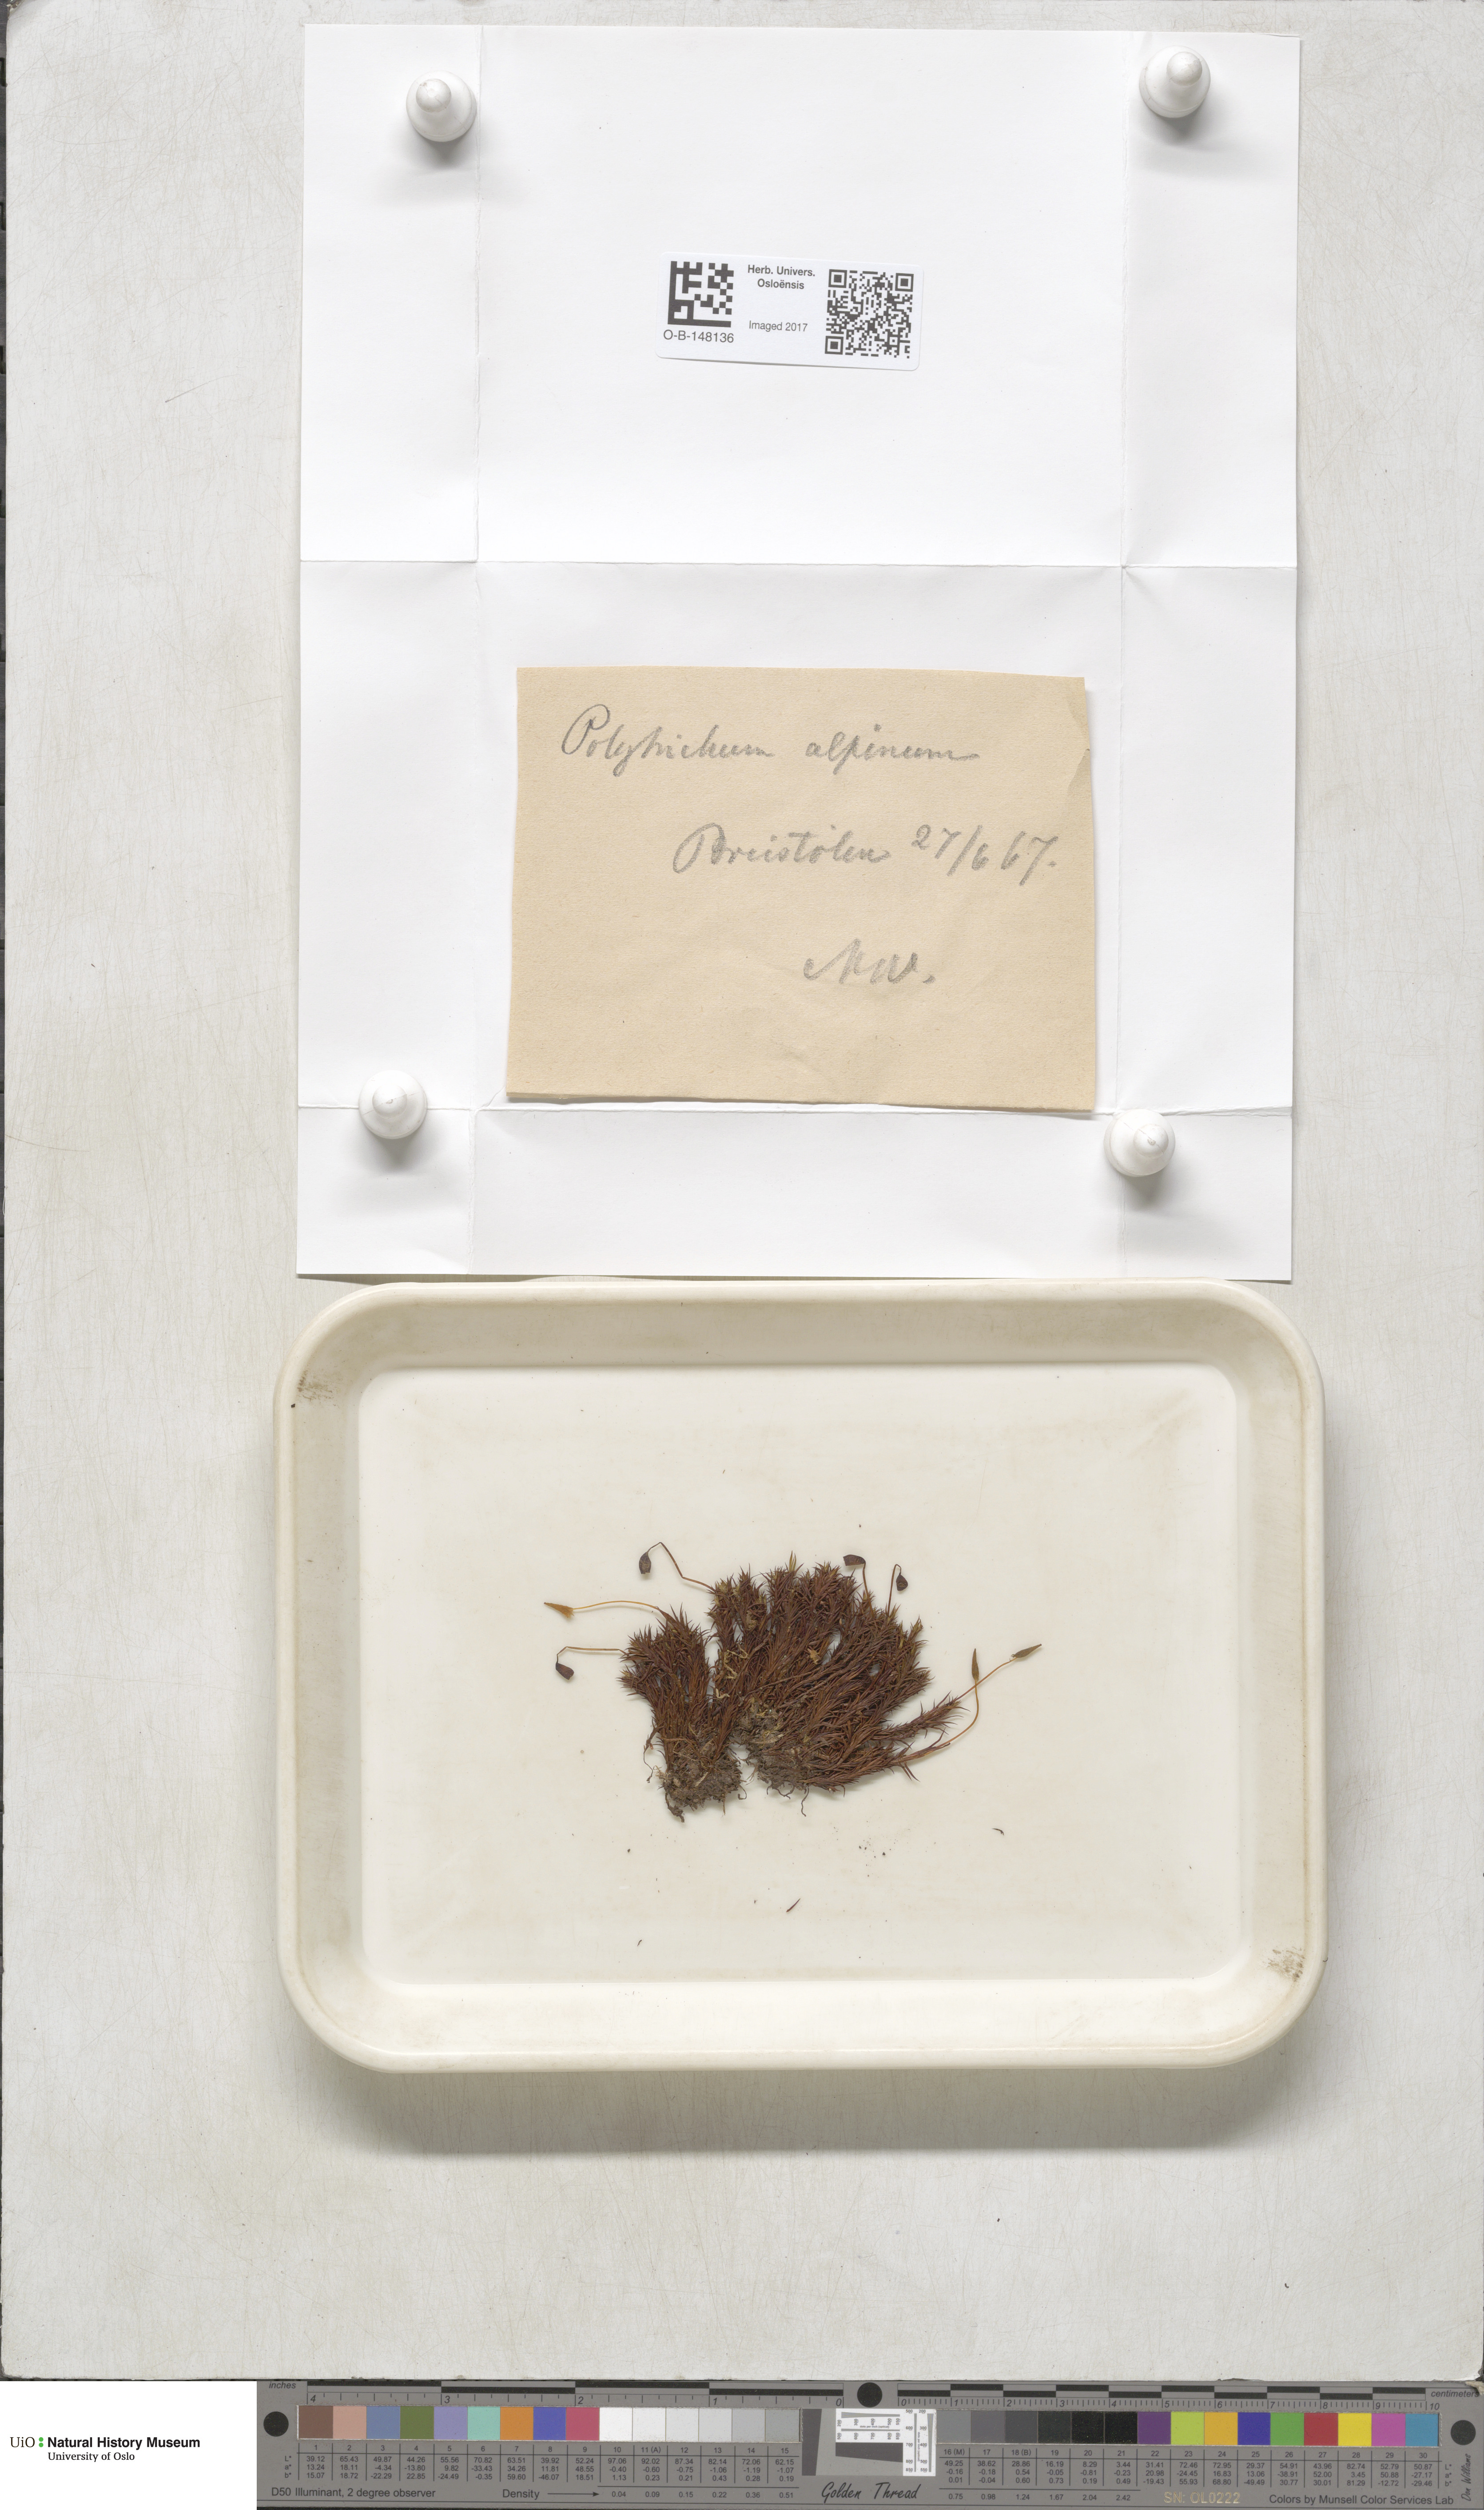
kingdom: Plantae
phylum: Bryophyta
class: Polytrichopsida
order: Polytrichales
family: Polytrichaceae
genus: Polytrichastrum
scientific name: Polytrichastrum alpinum
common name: Alpine haircap
